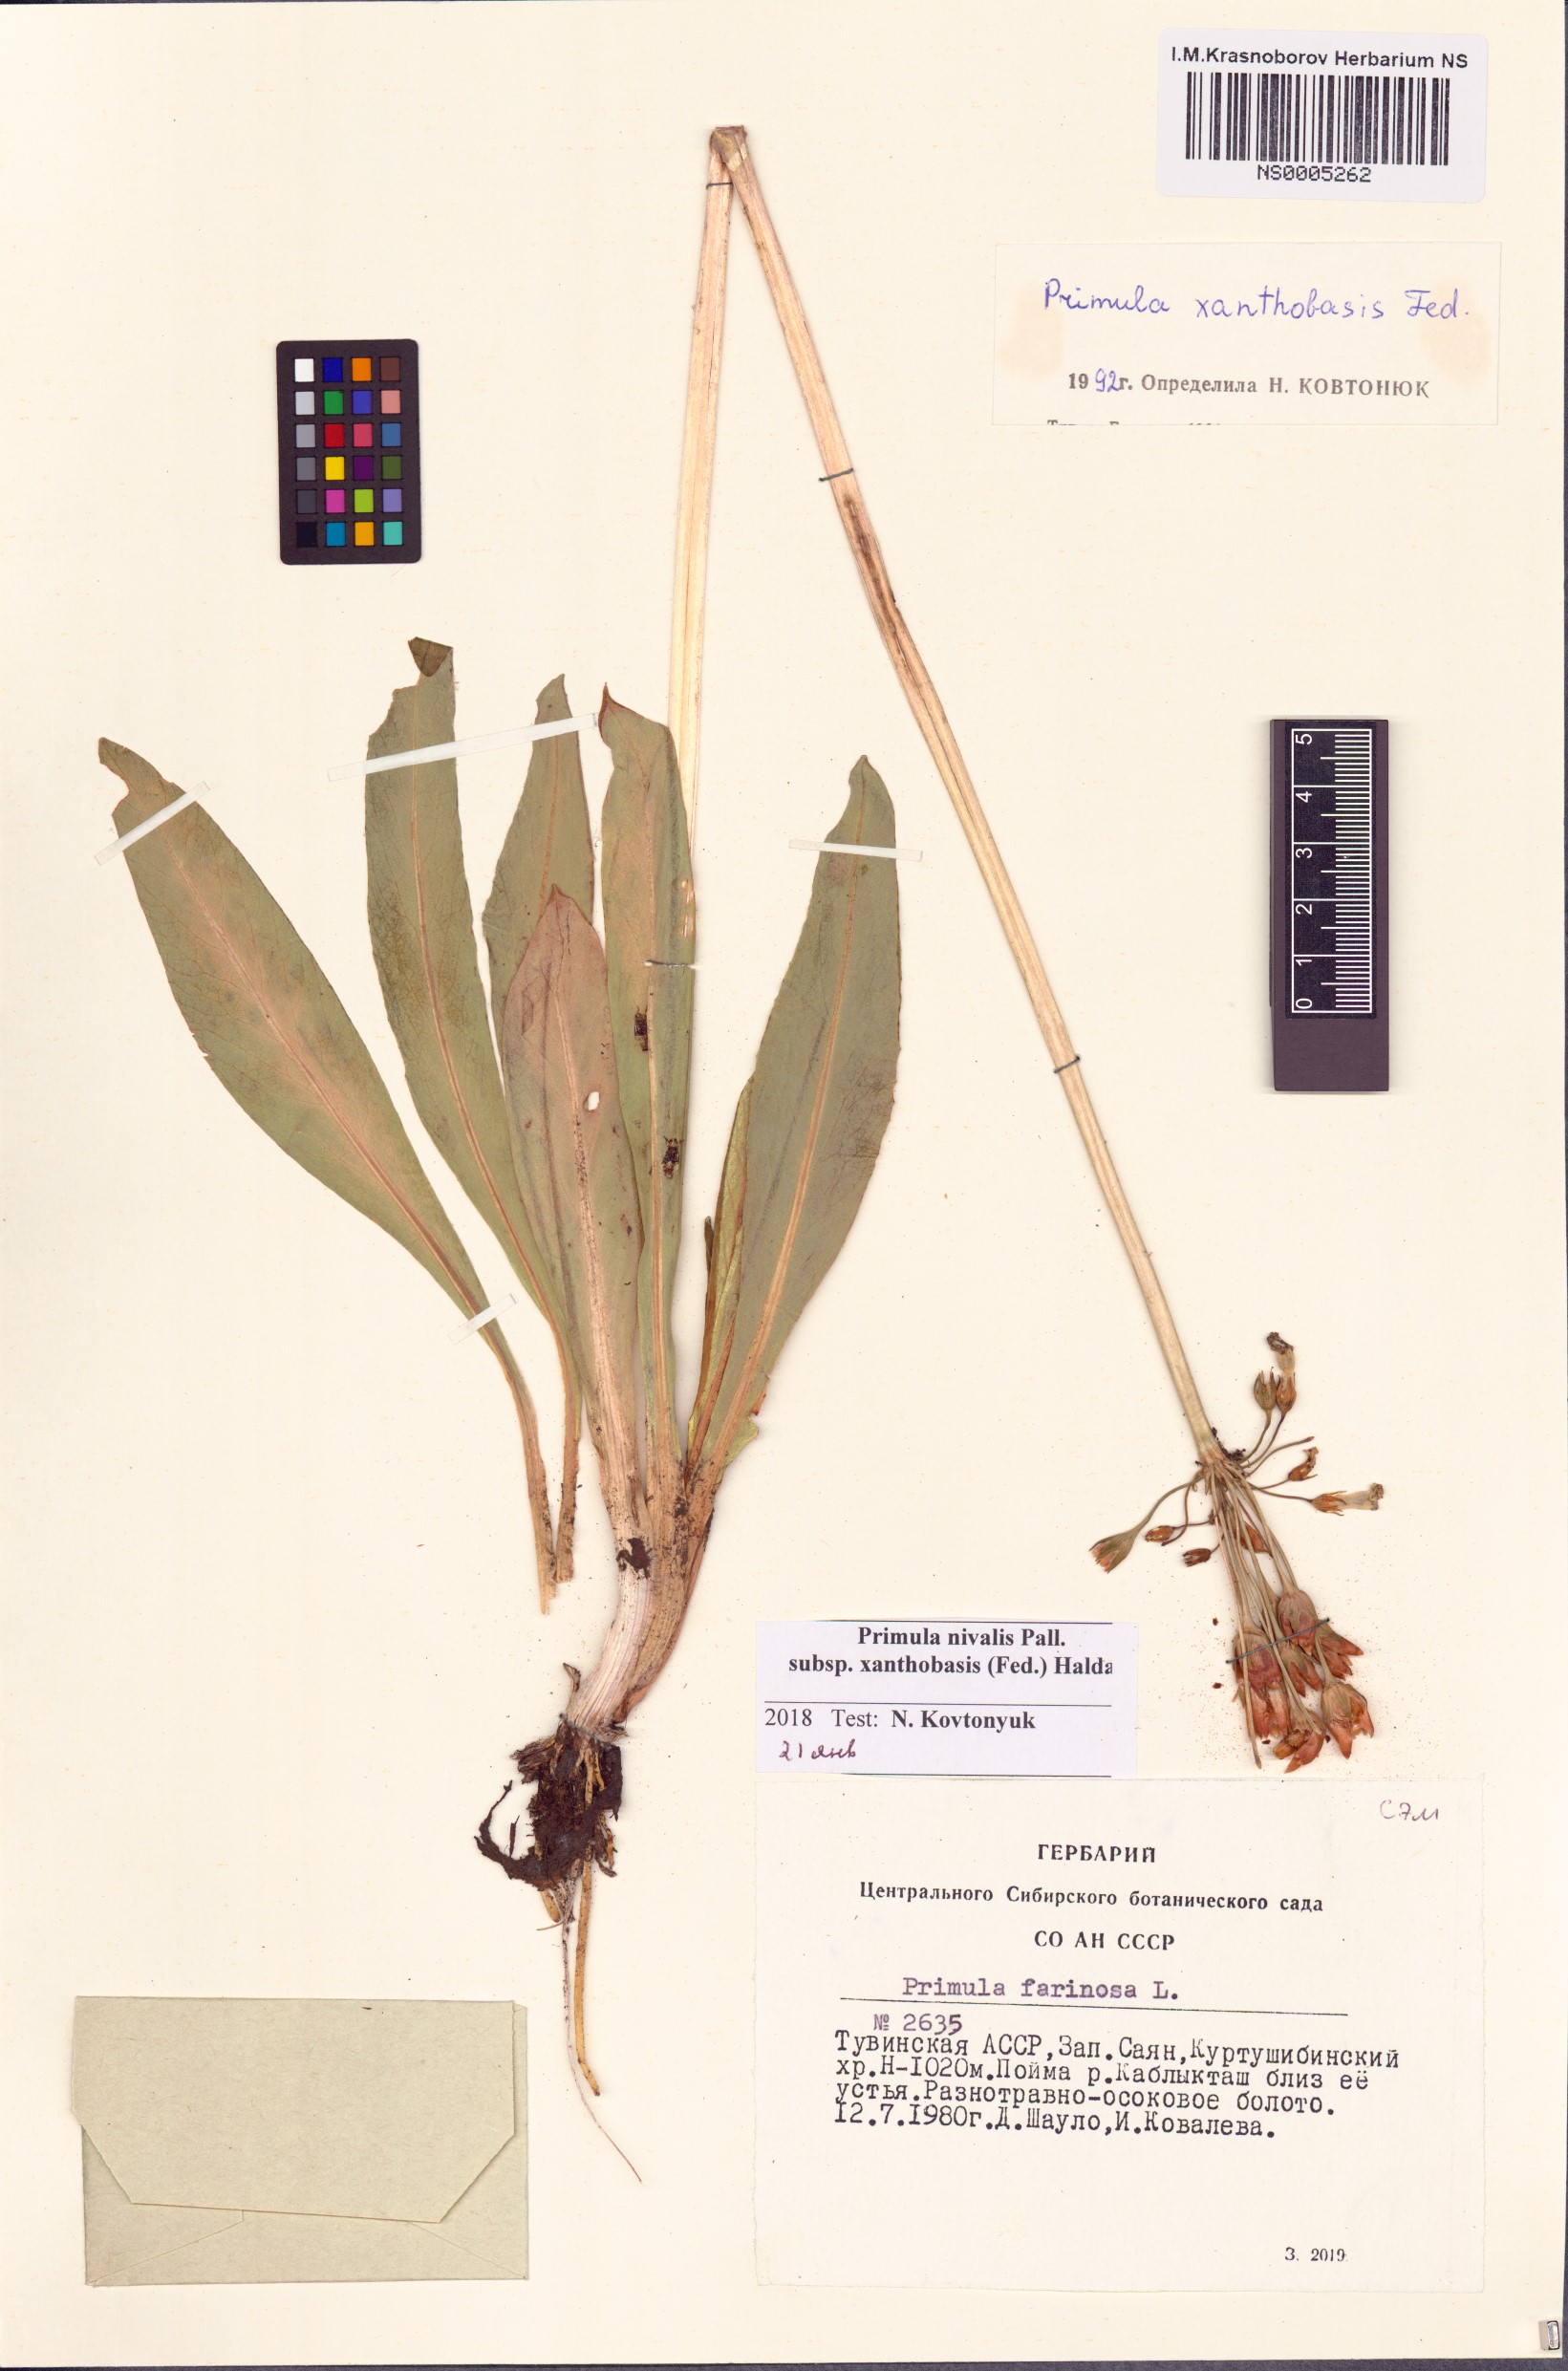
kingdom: Plantae
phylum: Tracheophyta
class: Magnoliopsida
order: Ericales
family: Primulaceae
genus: Primula
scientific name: Primula nivalis
